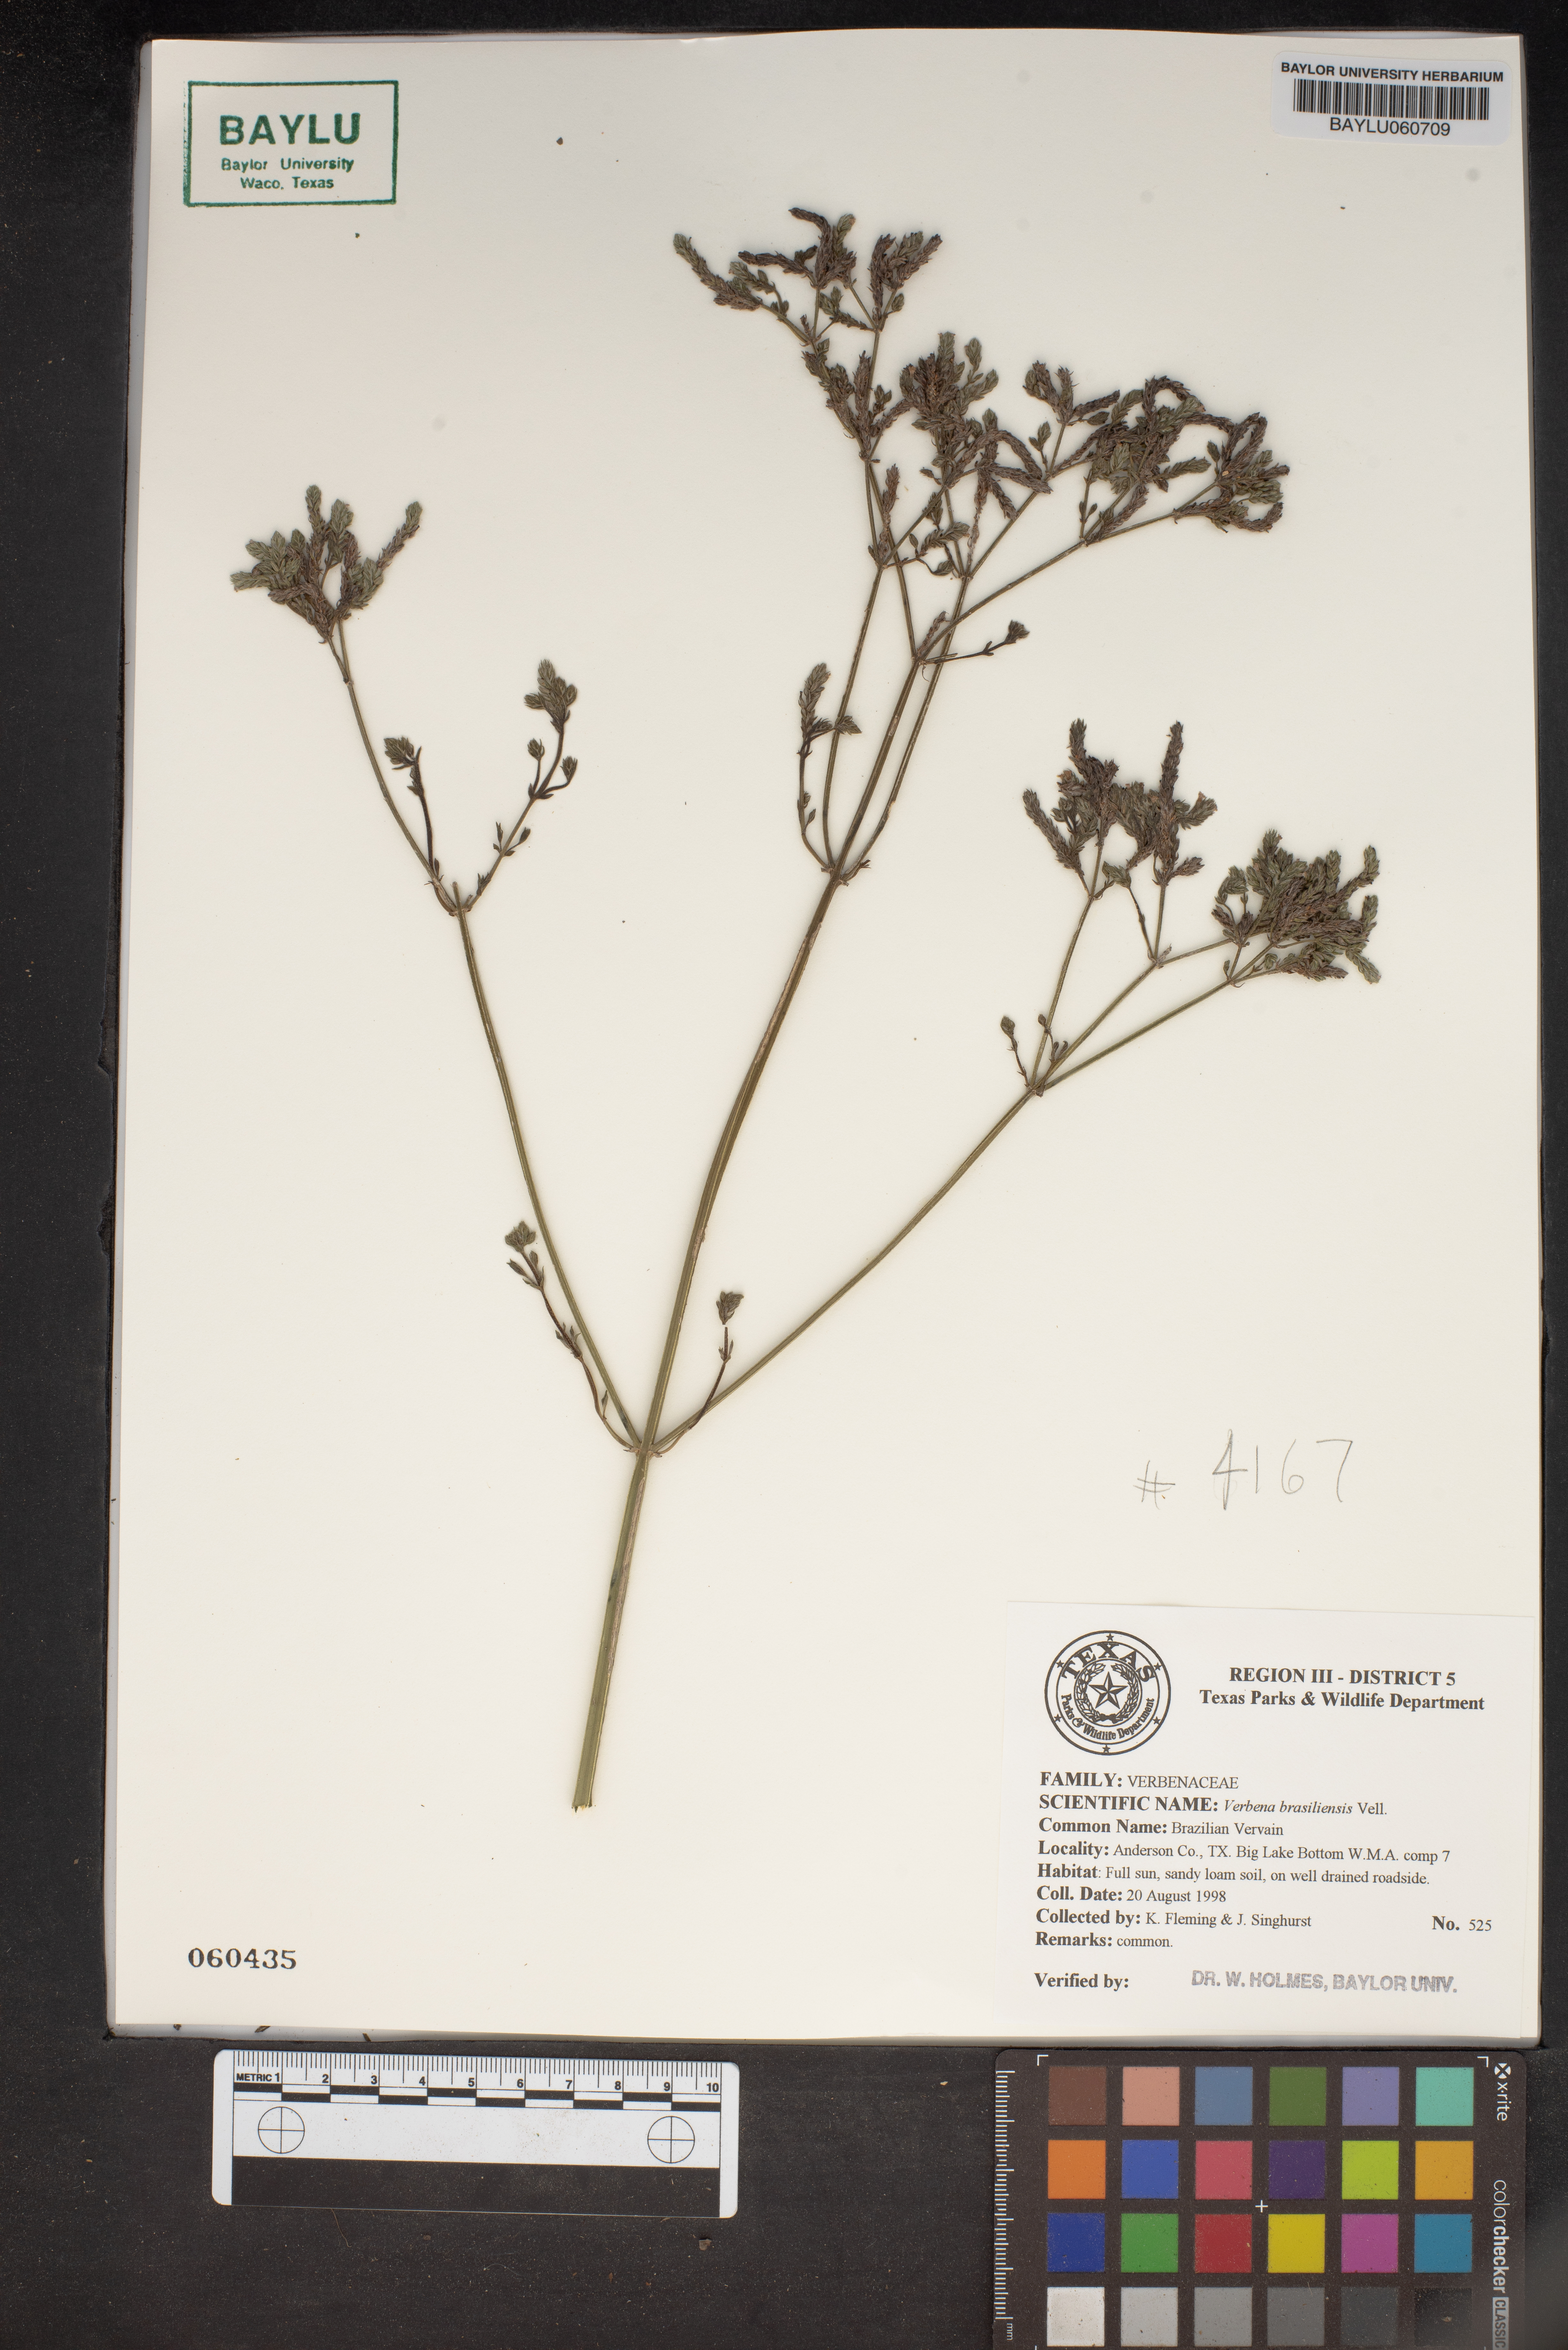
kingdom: Plantae
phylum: Tracheophyta
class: Magnoliopsida
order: Lamiales
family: Verbenaceae
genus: Verbena
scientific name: Verbena brasiliensis
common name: Brazilian vervain
